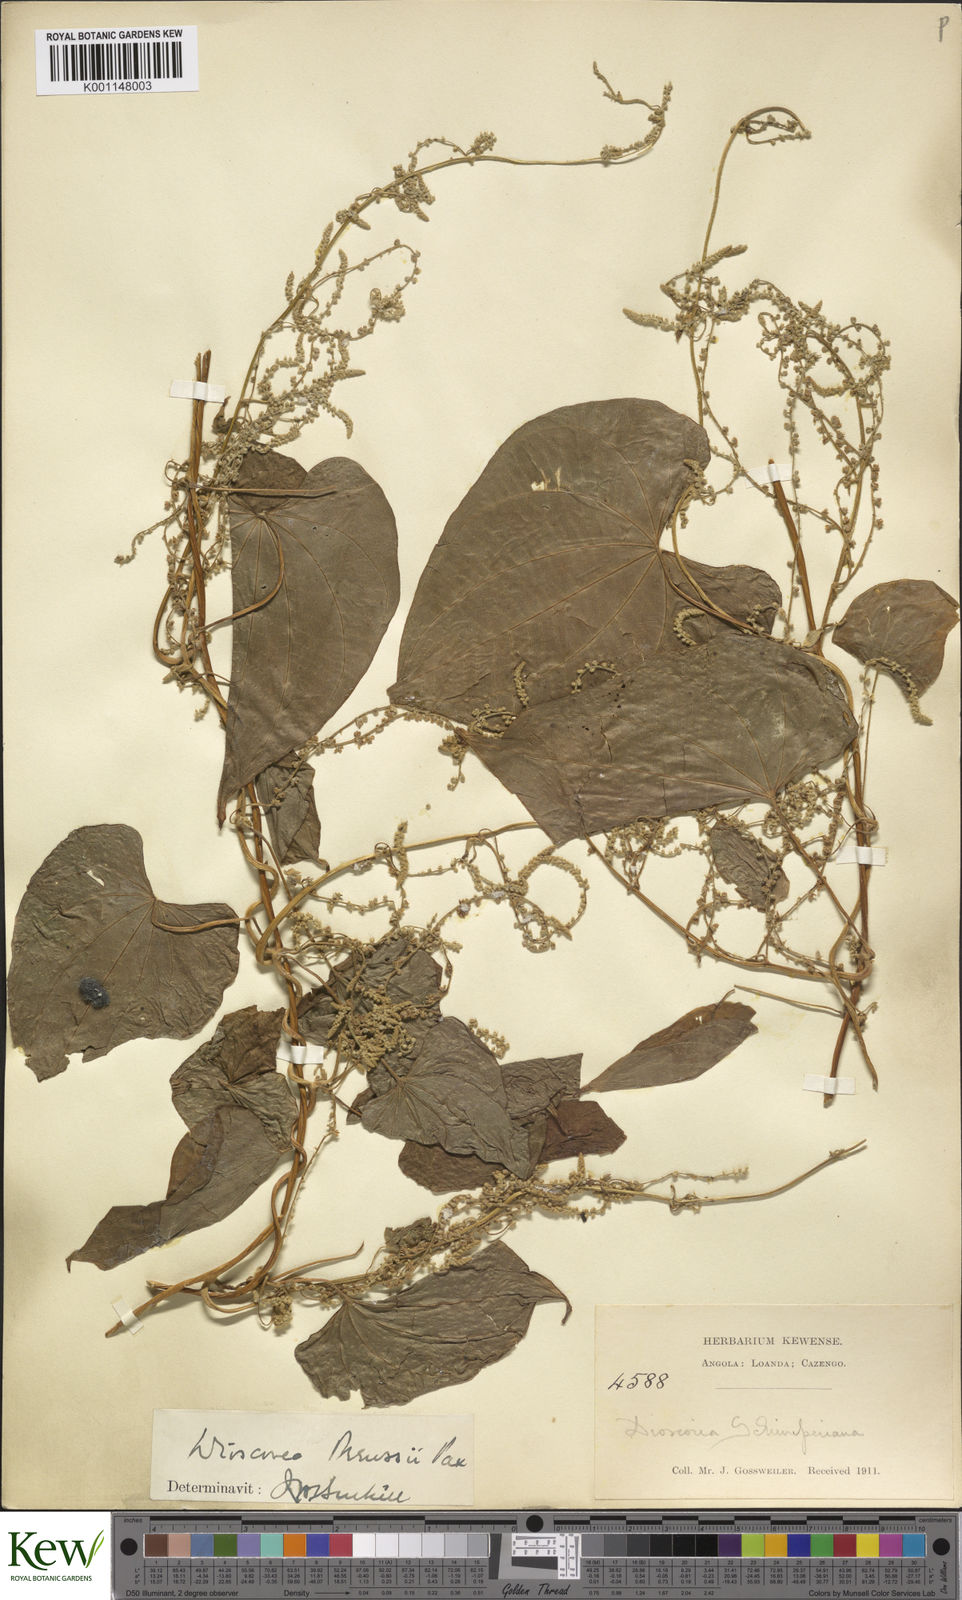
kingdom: Plantae
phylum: Tracheophyta
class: Liliopsida
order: Dioscoreales
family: Dioscoreaceae
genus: Dioscorea
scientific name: Dioscorea preussii
